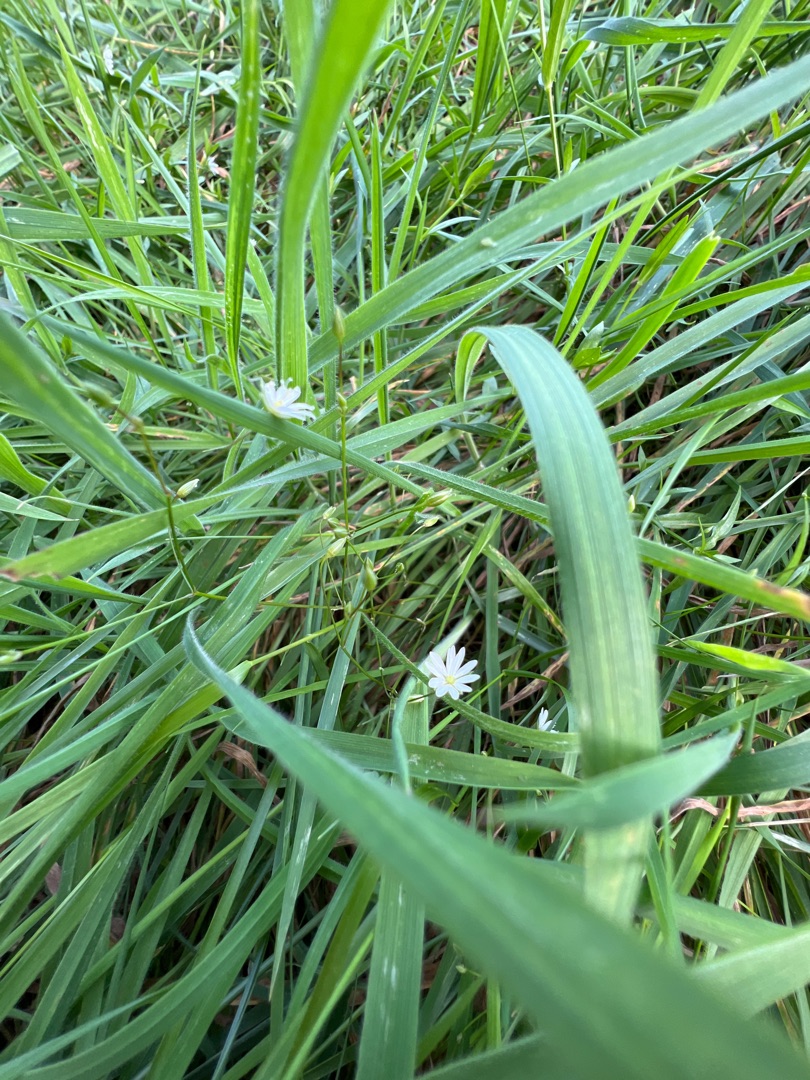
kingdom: Plantae
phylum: Tracheophyta
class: Magnoliopsida
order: Caryophyllales
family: Caryophyllaceae
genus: Stellaria
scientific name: Stellaria graminea
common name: Græsbladet fladstjerne
